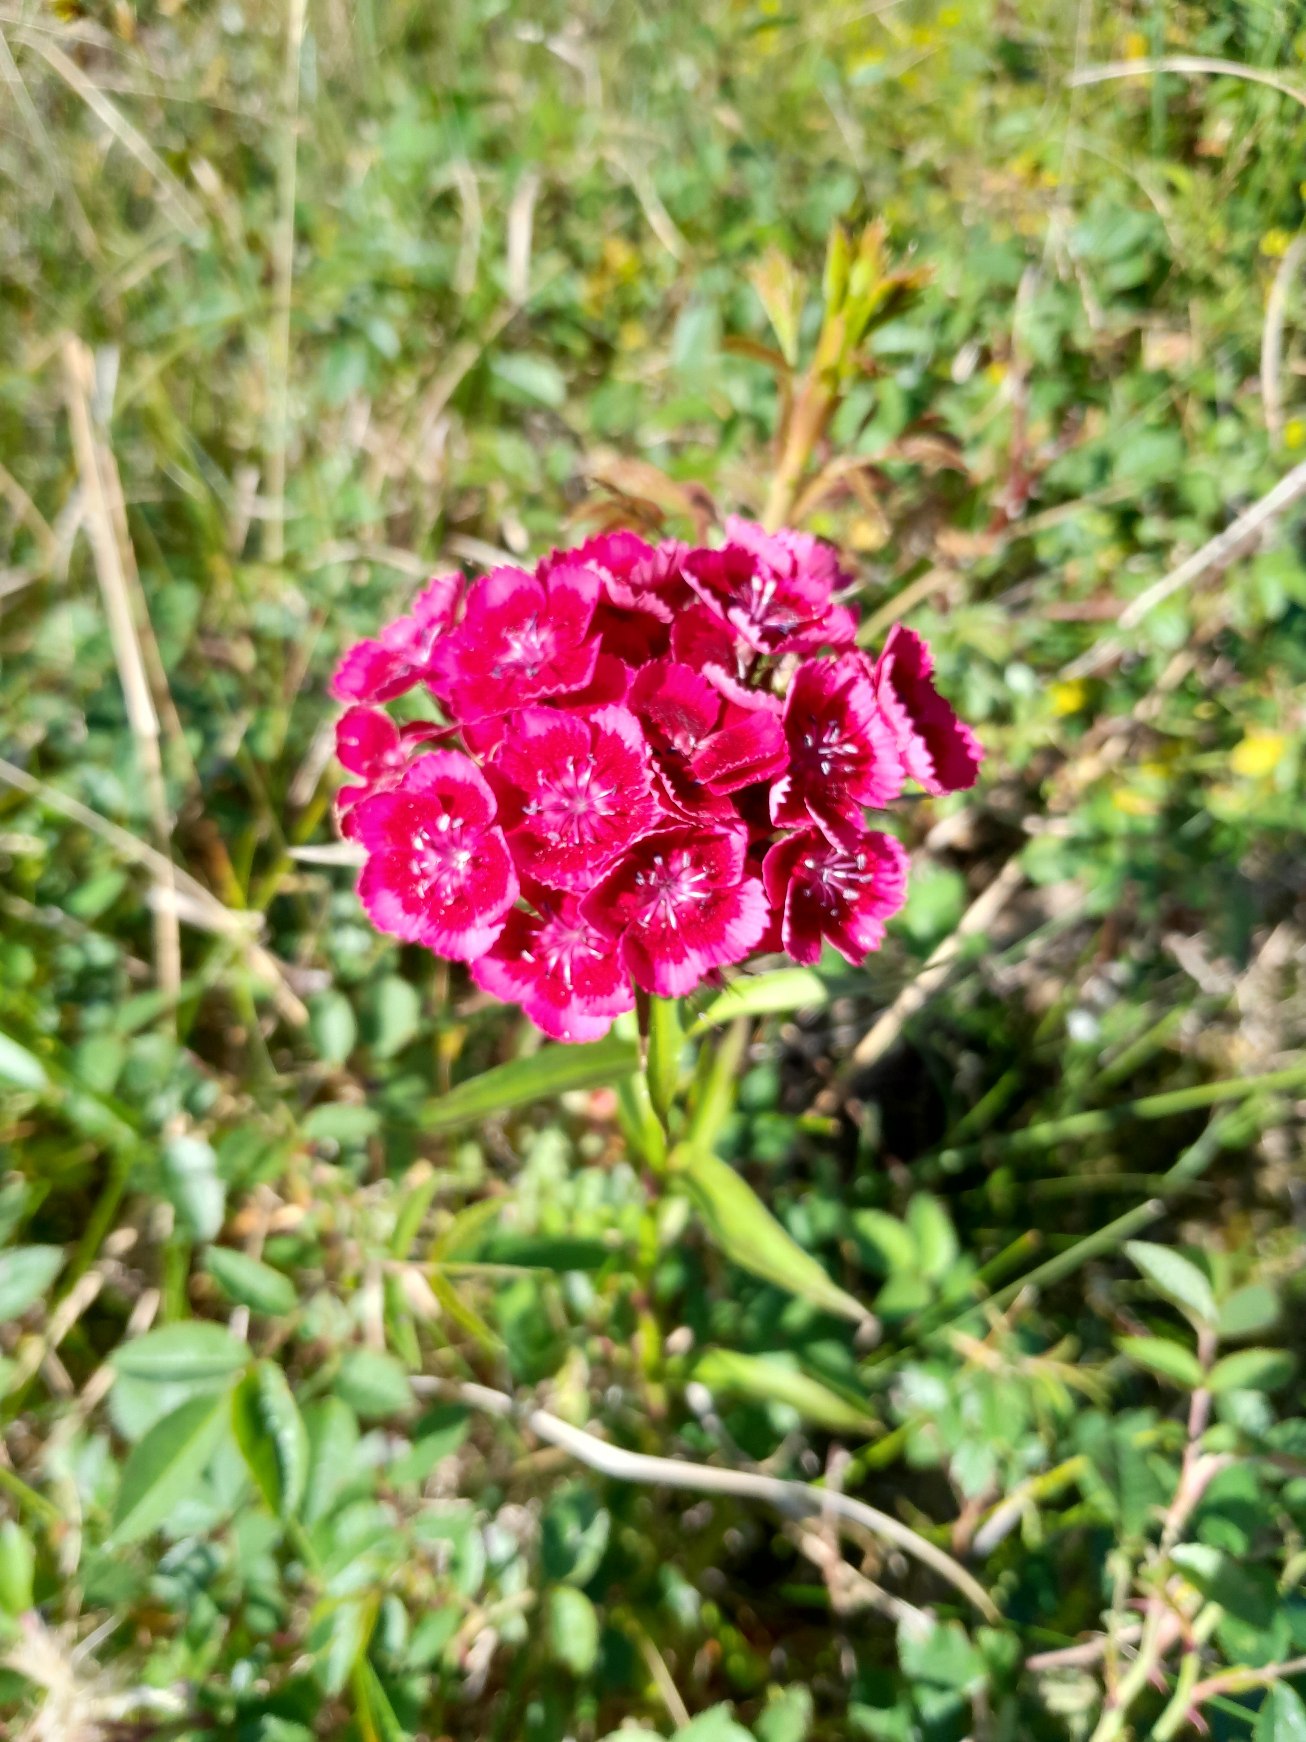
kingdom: Plantae
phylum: Tracheophyta
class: Magnoliopsida
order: Caryophyllales
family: Caryophyllaceae
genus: Dianthus
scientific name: Dianthus barbatus
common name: Studenter-nellike
